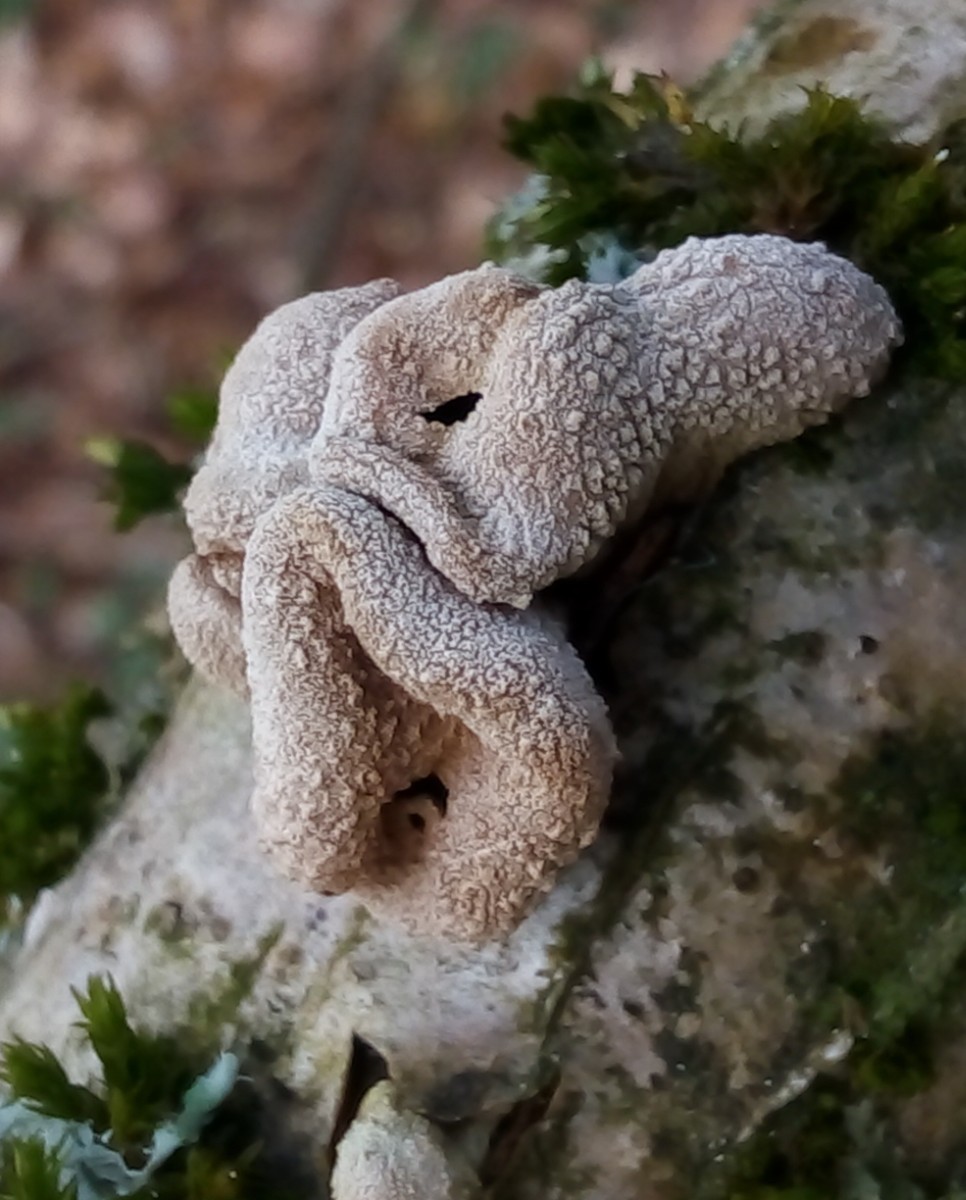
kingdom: Fungi
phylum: Ascomycota
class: Leotiomycetes
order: Helotiales
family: Cenangiaceae
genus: Encoelia
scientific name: Encoelia furfuracea
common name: hassel-læderskive
